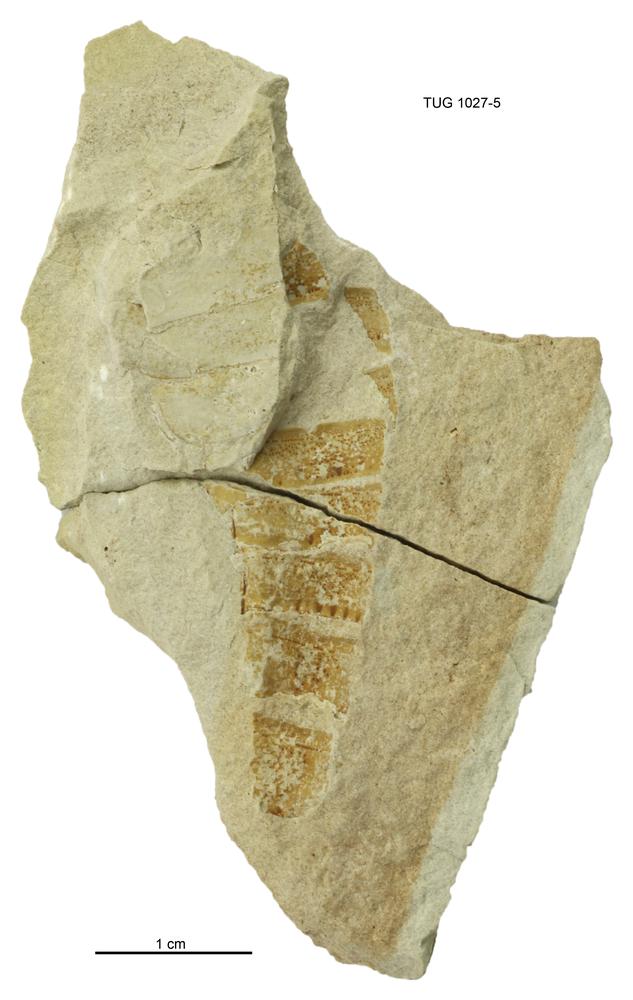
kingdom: Animalia
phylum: Arthropoda
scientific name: Arthropoda
